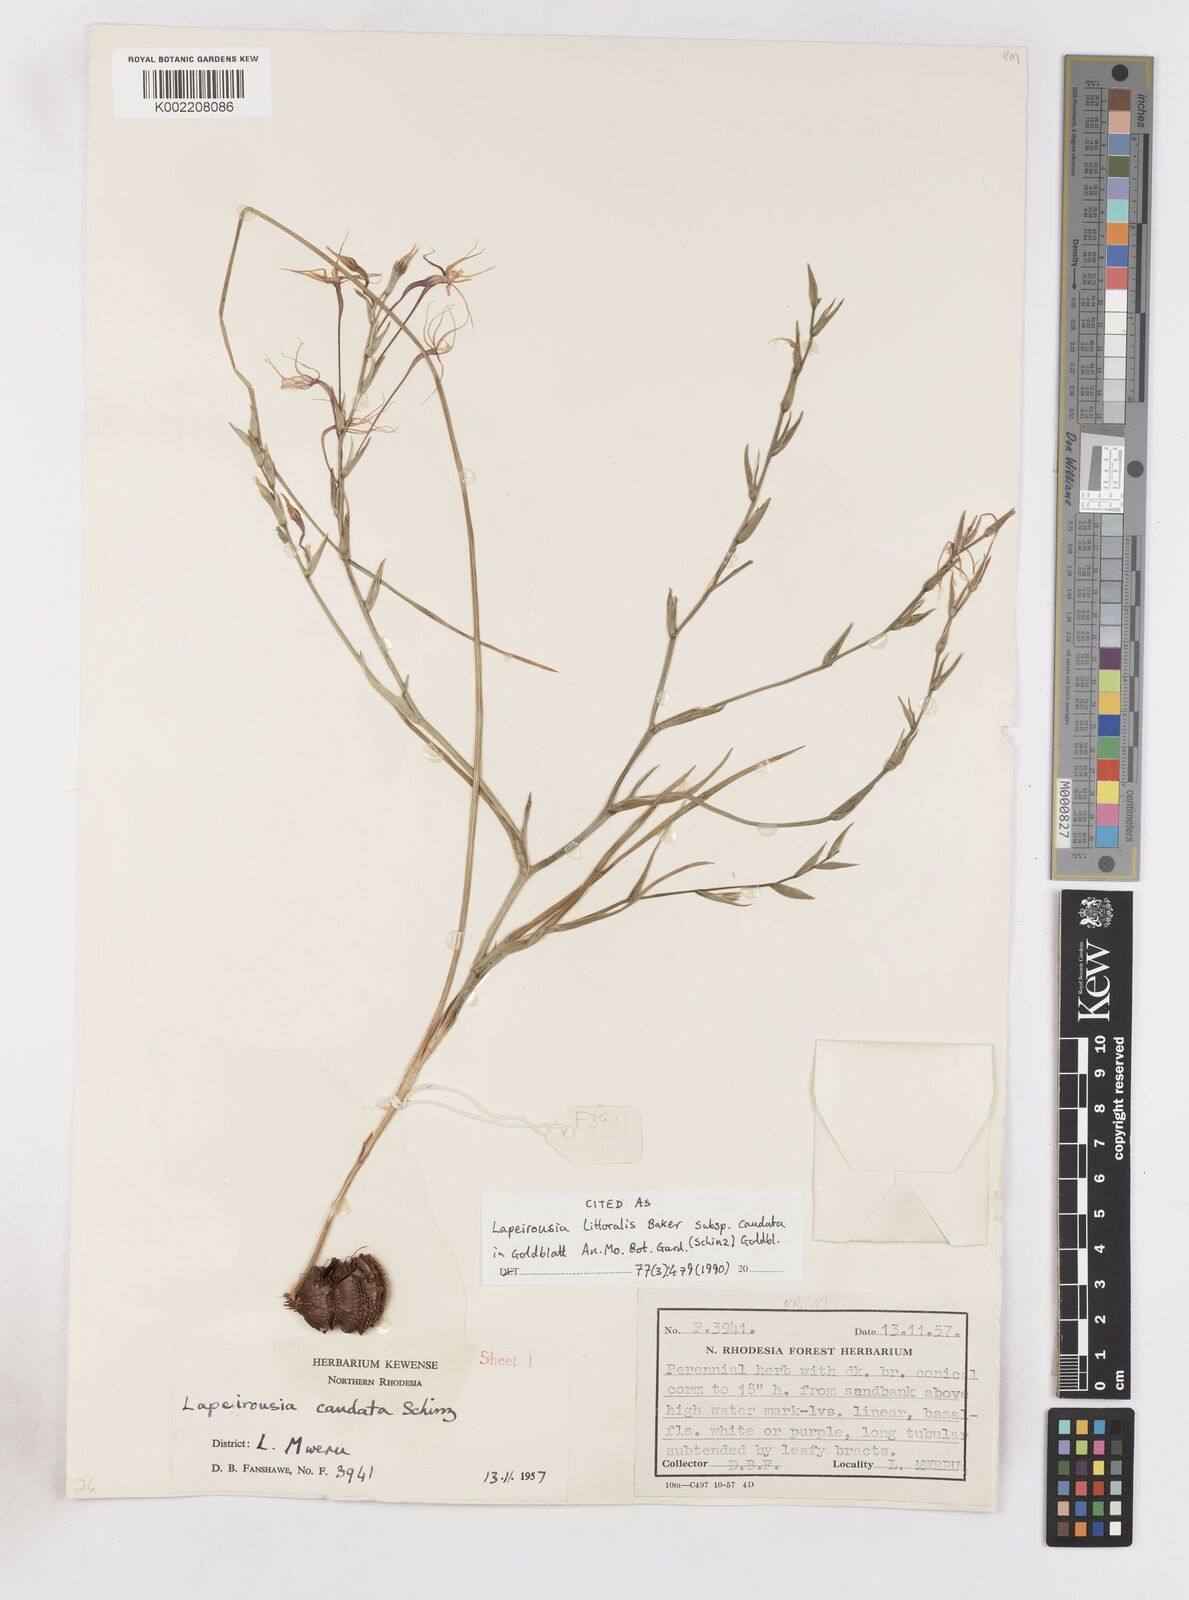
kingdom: Plantae
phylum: Tracheophyta
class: Liliopsida
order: Asparagales
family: Iridaceae
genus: Lapeirousia
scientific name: Lapeirousia caudata
